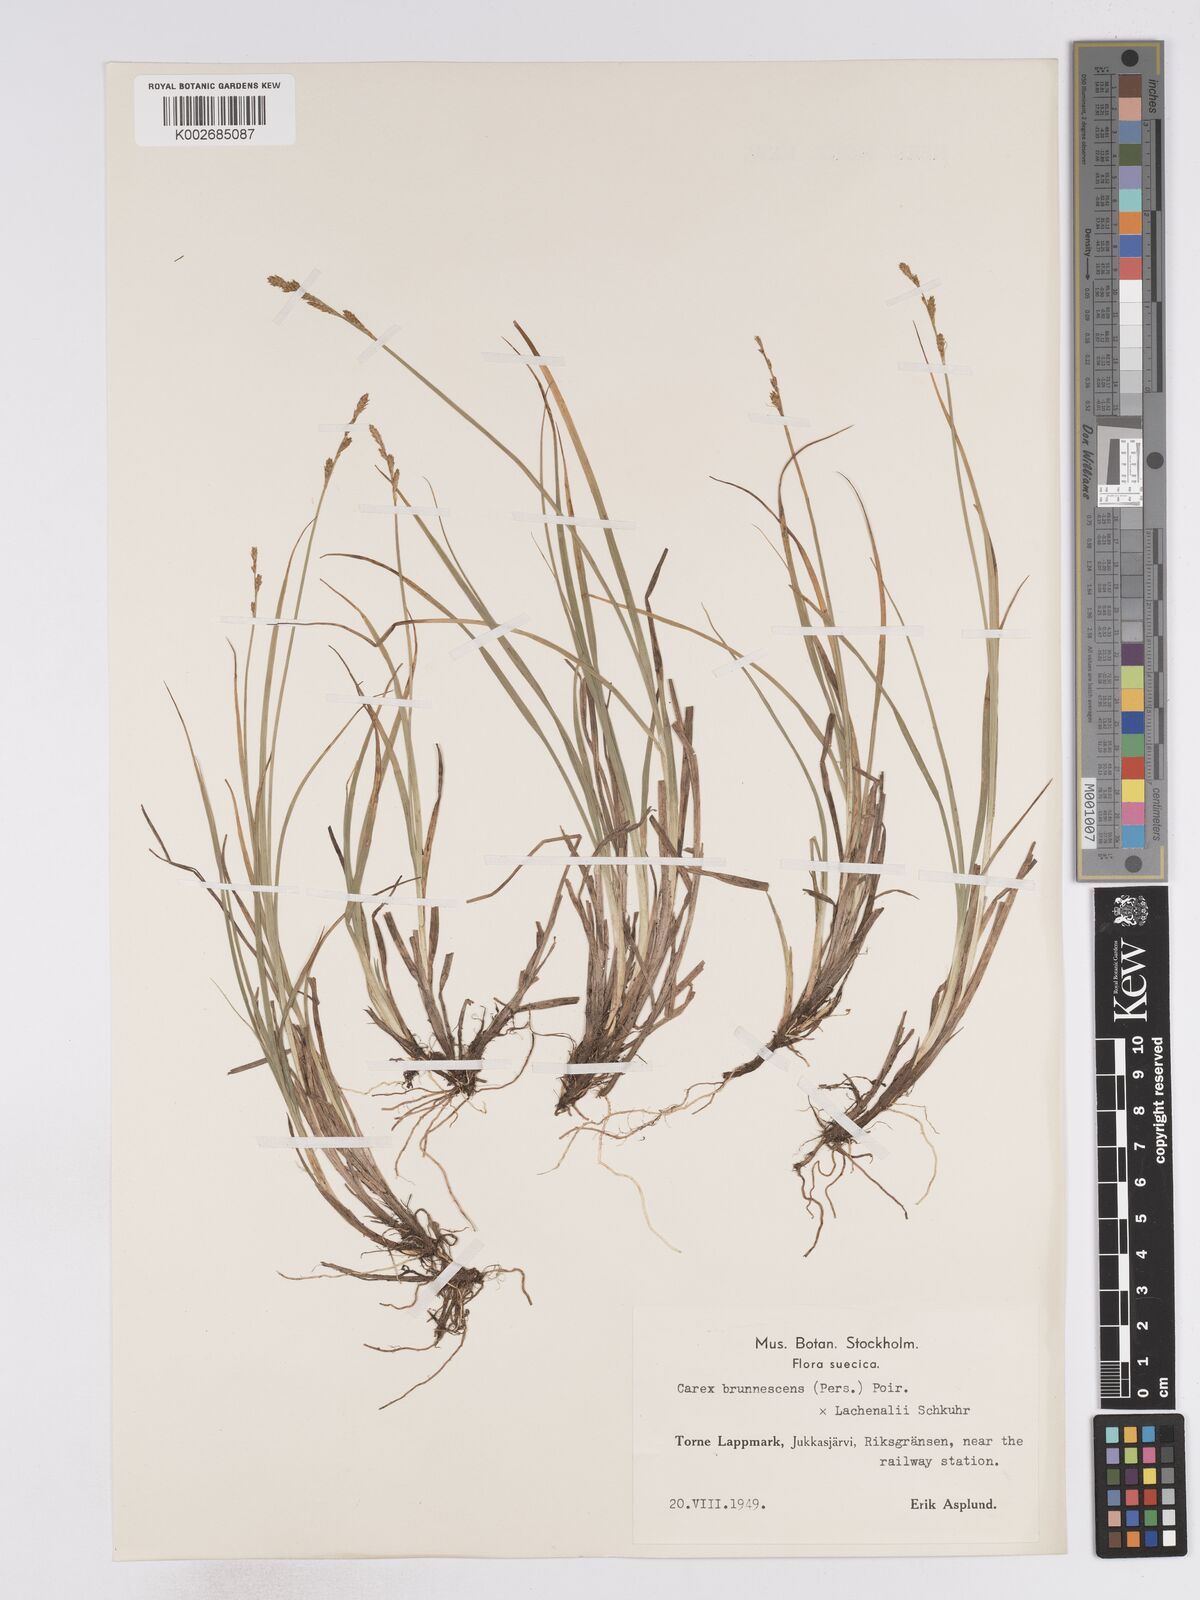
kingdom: Plantae
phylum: Tracheophyta
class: Liliopsida
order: Poales
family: Cyperaceae
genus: Carex
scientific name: Carex brunnescens
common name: Brown sedge
